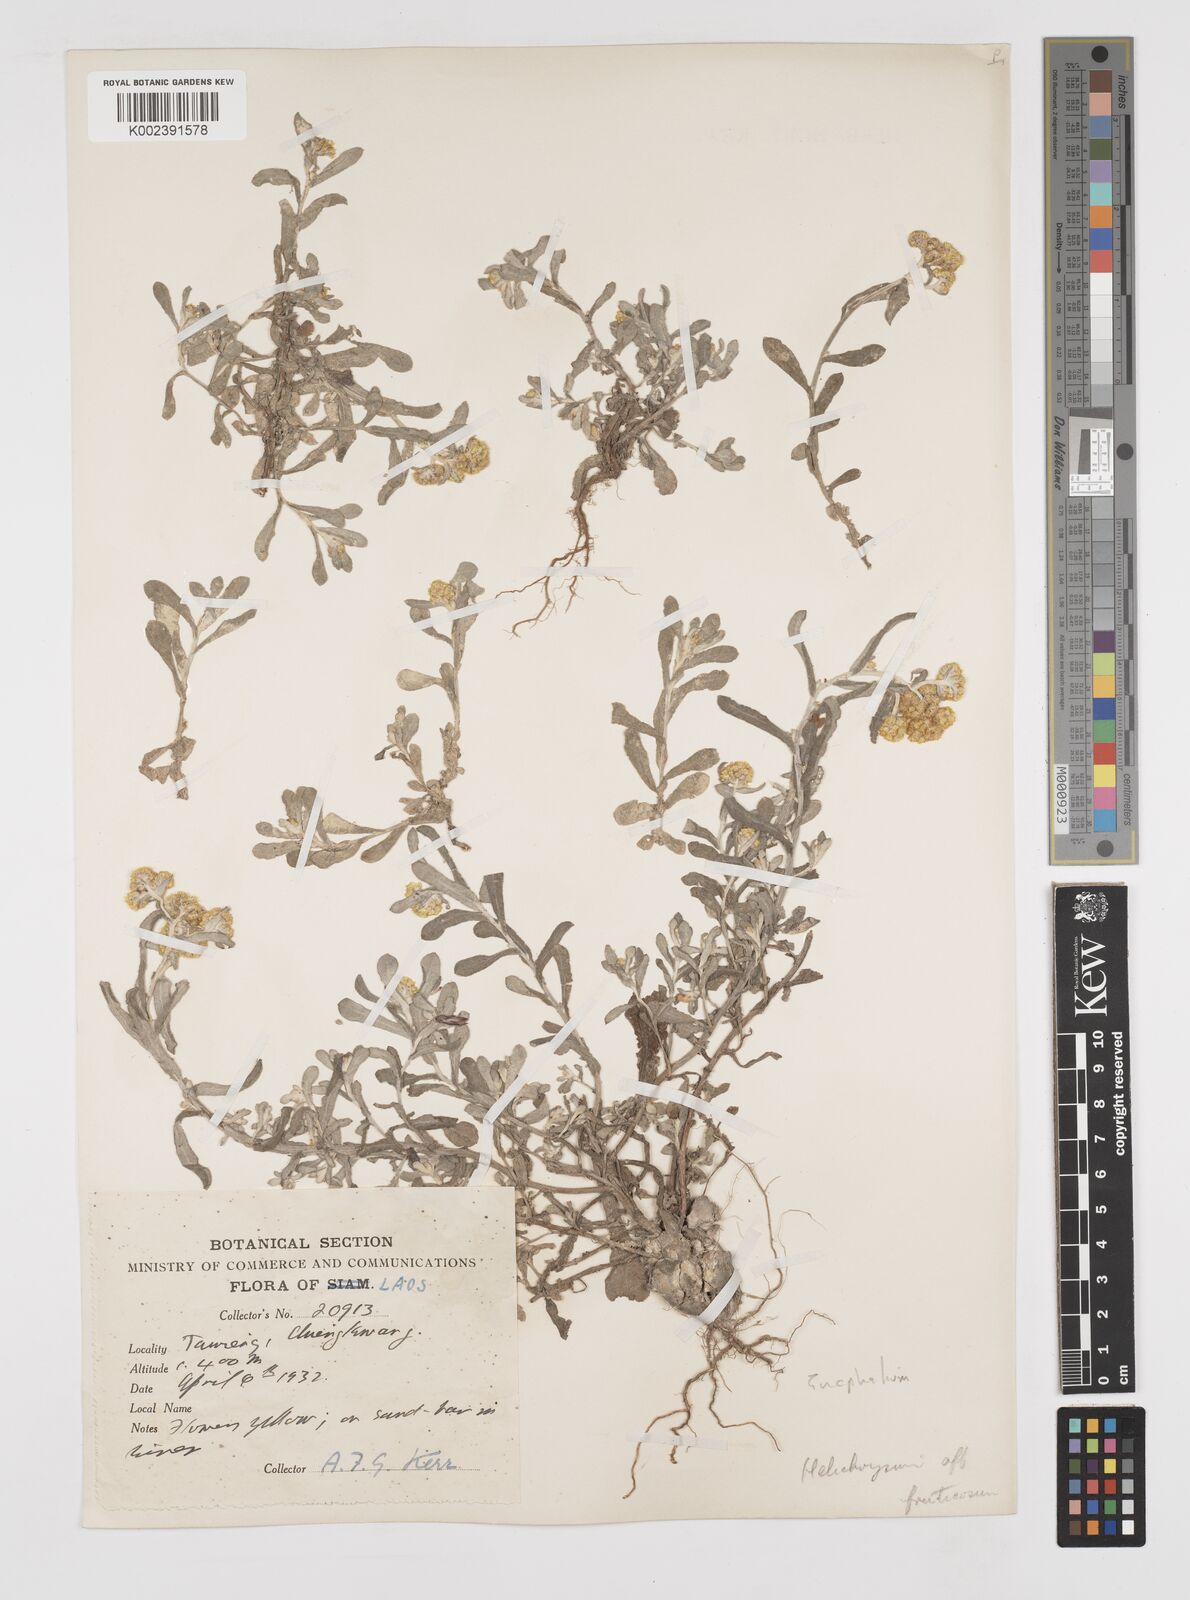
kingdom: Plantae
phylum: Tracheophyta
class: Magnoliopsida
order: Asterales
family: Asteraceae
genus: Gnaphalium
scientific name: Gnaphalium
